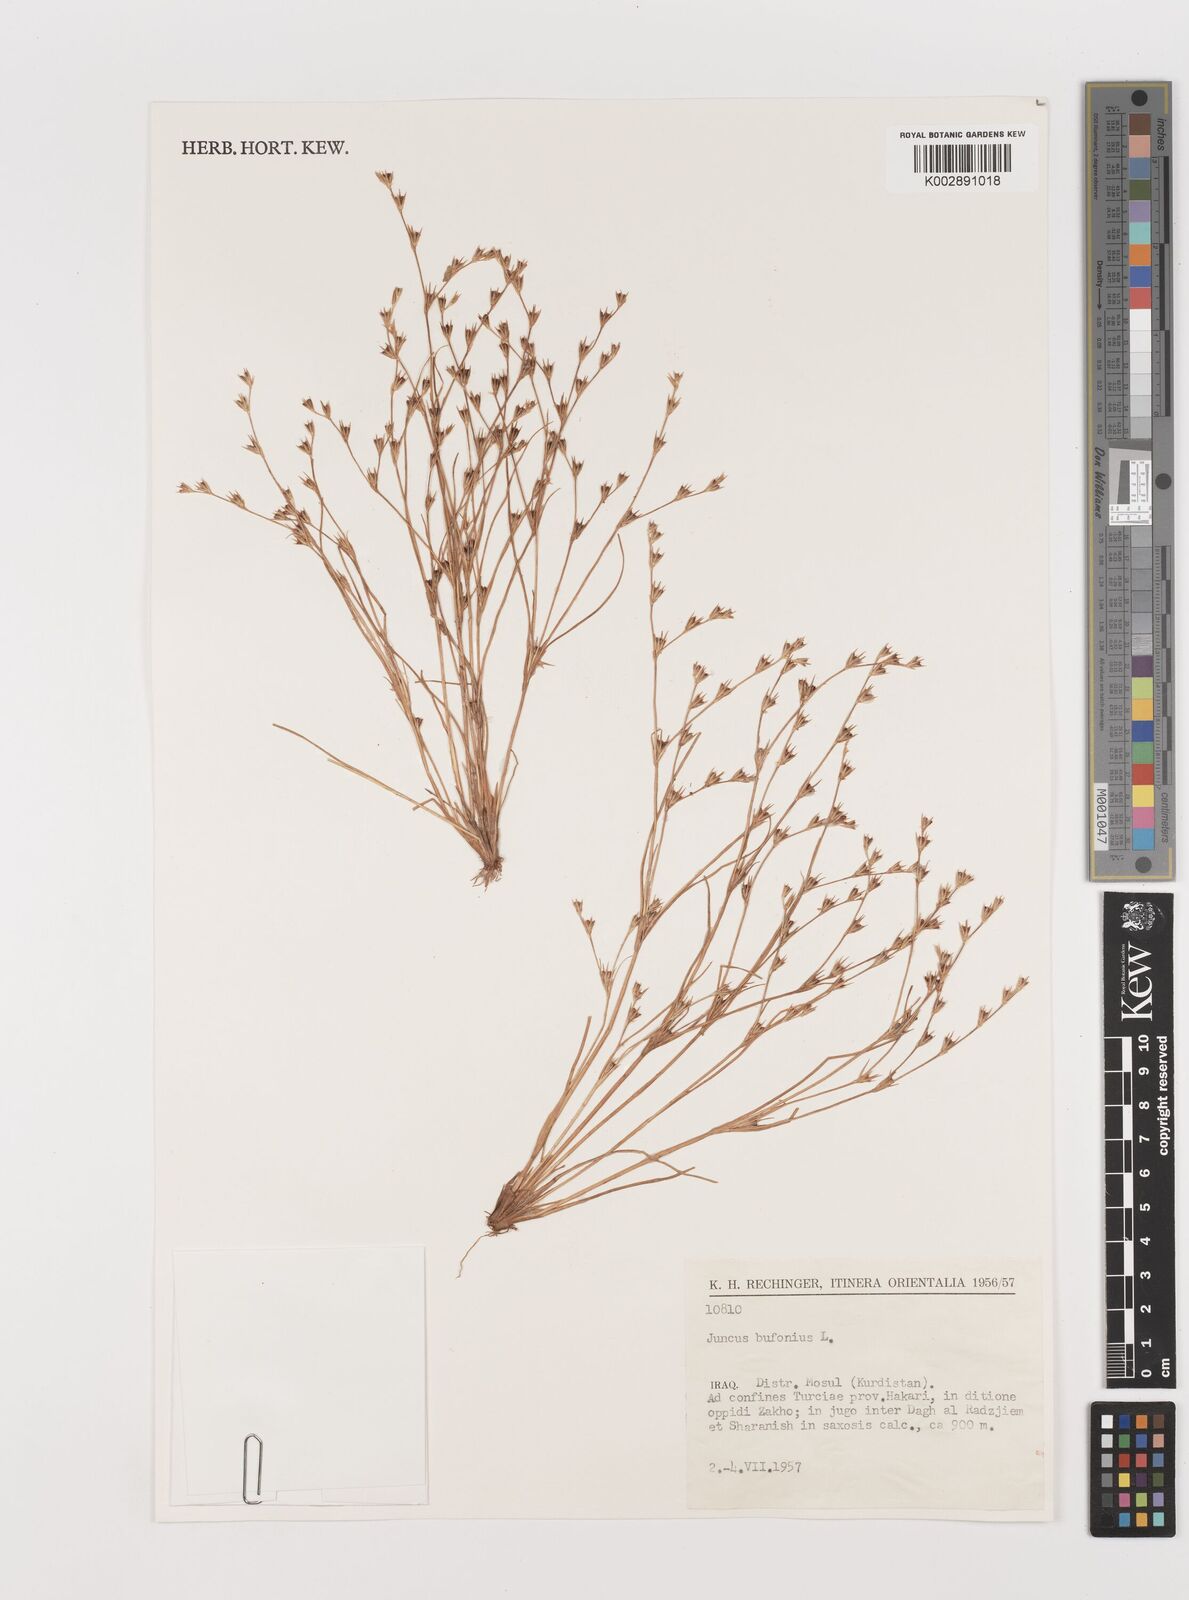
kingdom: Plantae
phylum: Tracheophyta
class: Liliopsida
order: Poales
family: Juncaceae
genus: Juncus
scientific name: Juncus bufonius
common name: Toad rush
